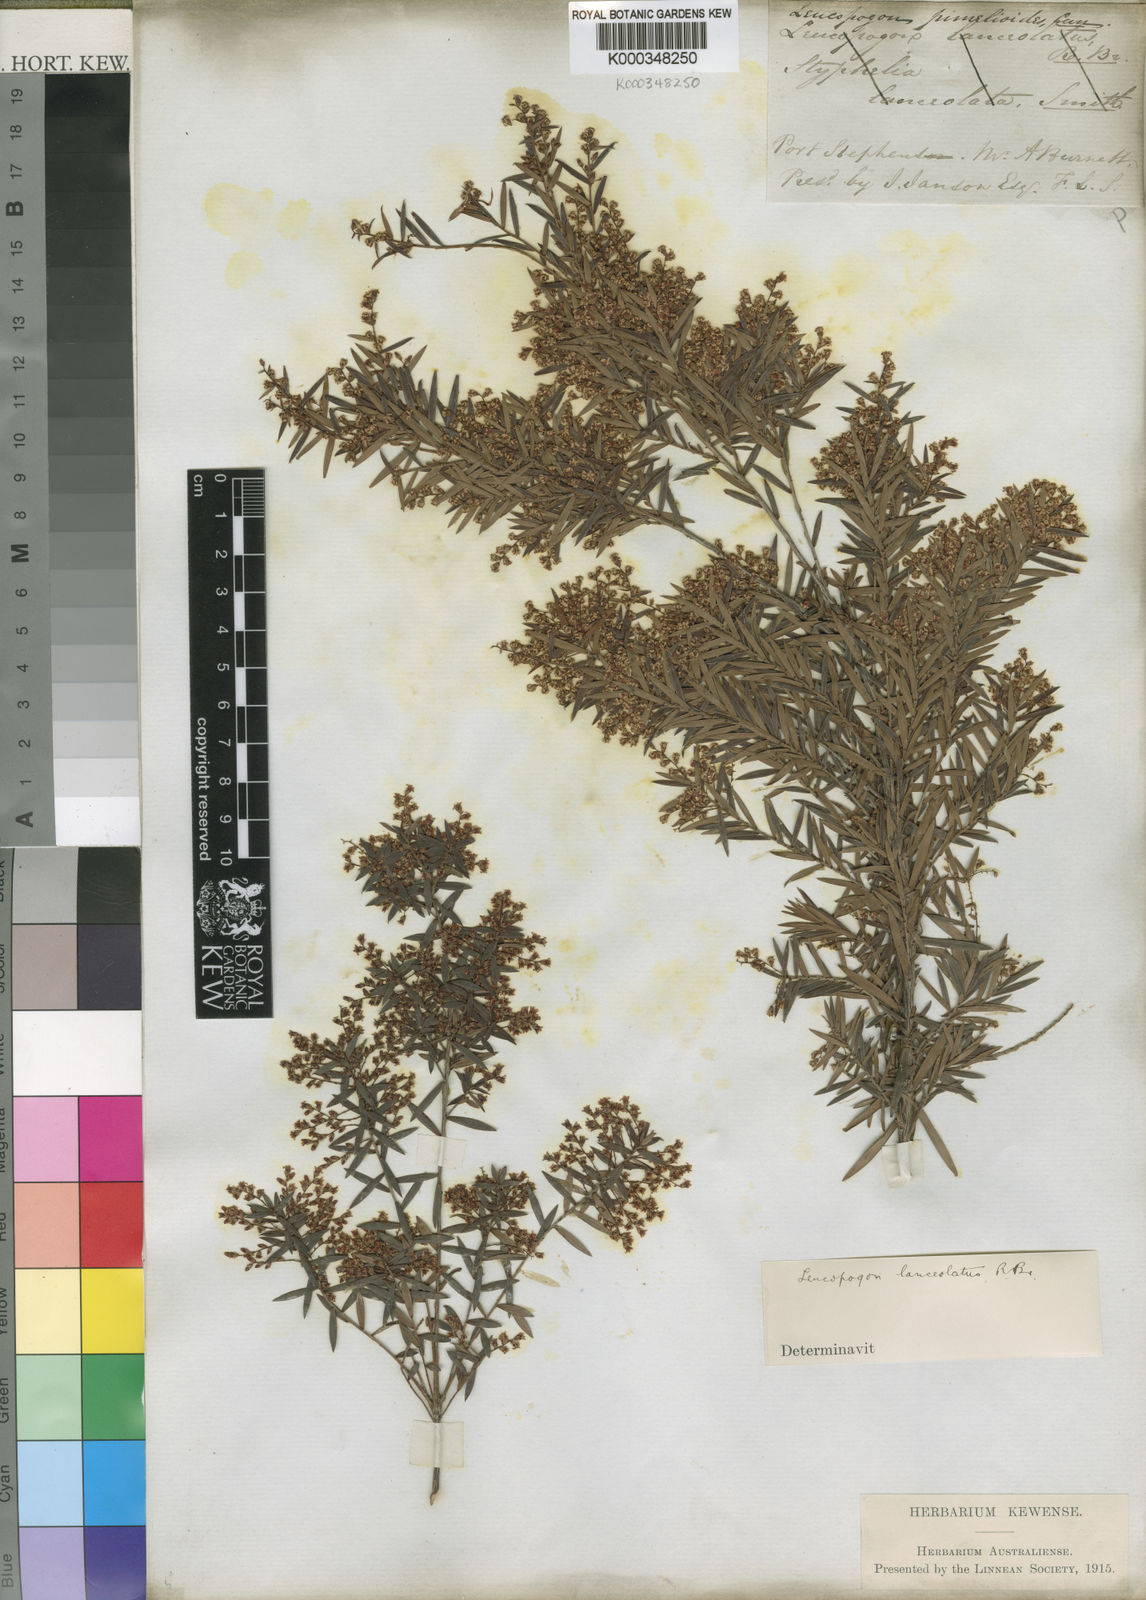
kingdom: Plantae
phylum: Tracheophyta
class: Magnoliopsida
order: Ericales
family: Ericaceae
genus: Leucopogon
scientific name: Leucopogon lanceolatus
